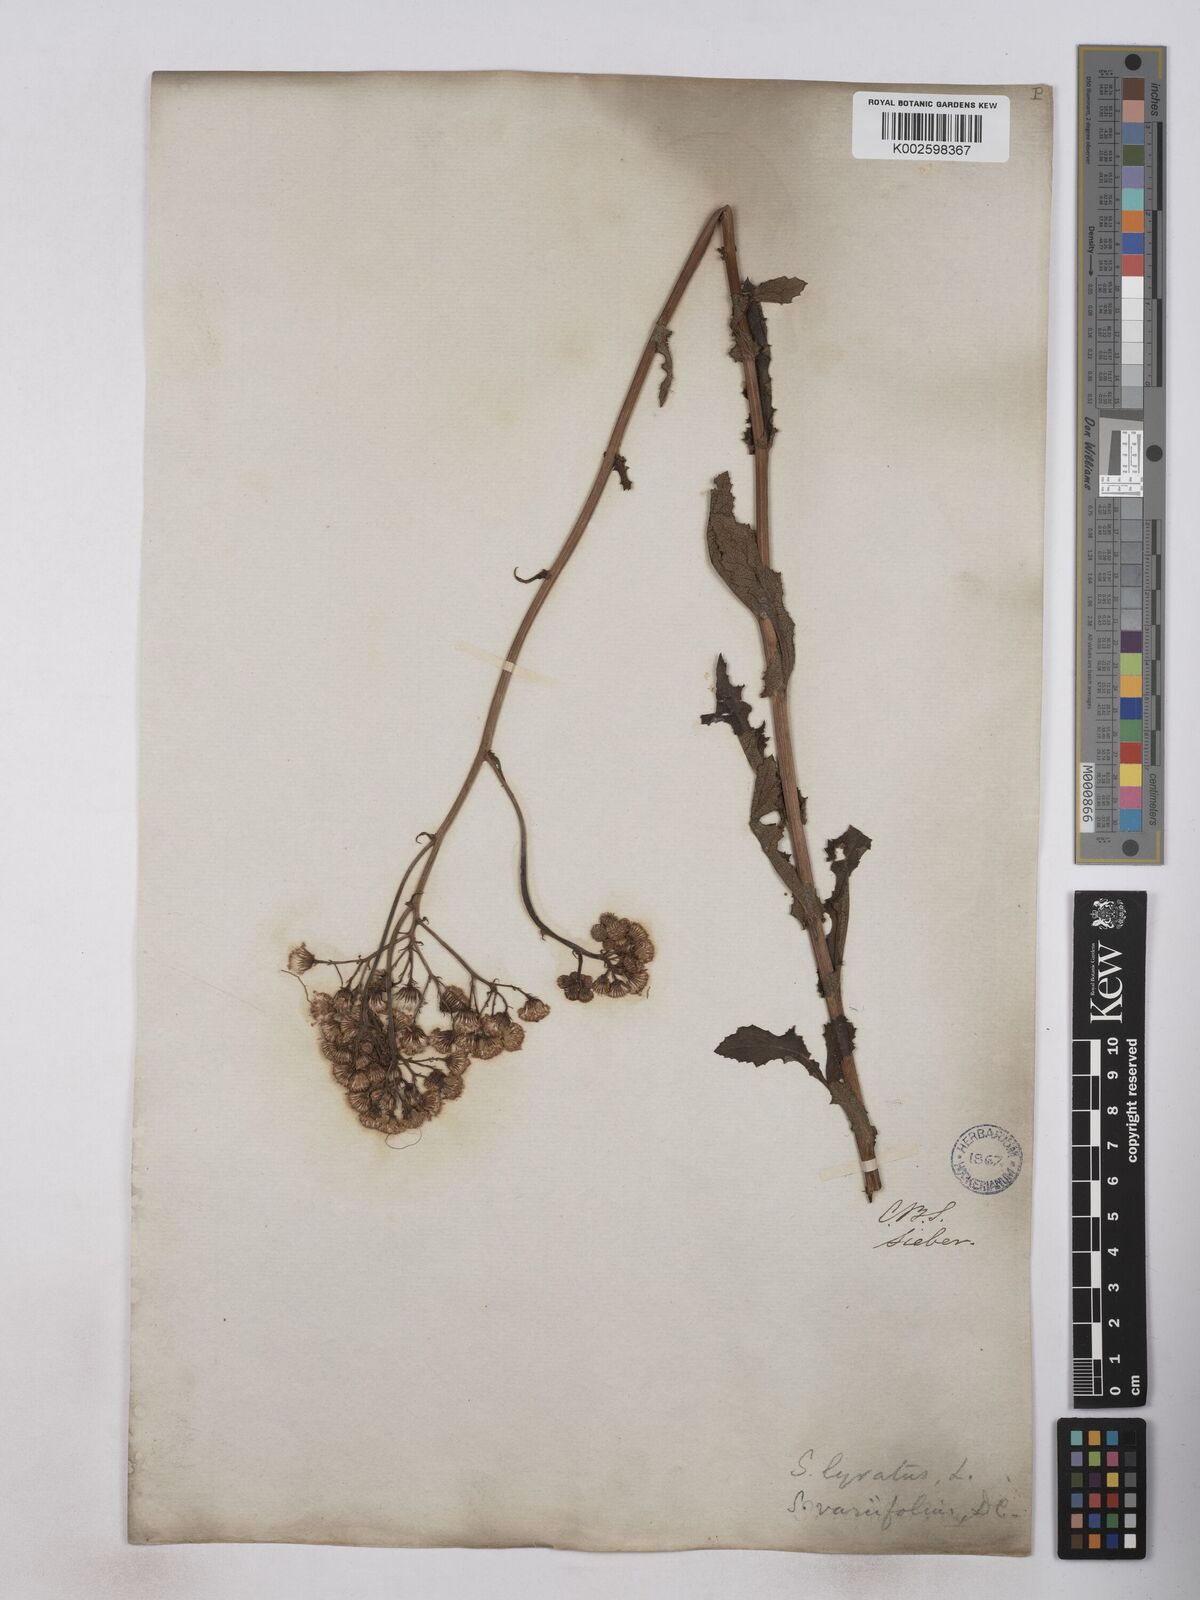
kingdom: Plantae
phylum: Tracheophyta
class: Magnoliopsida
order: Asterales
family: Asteraceae
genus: Senecio
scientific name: Senecio anapetes
